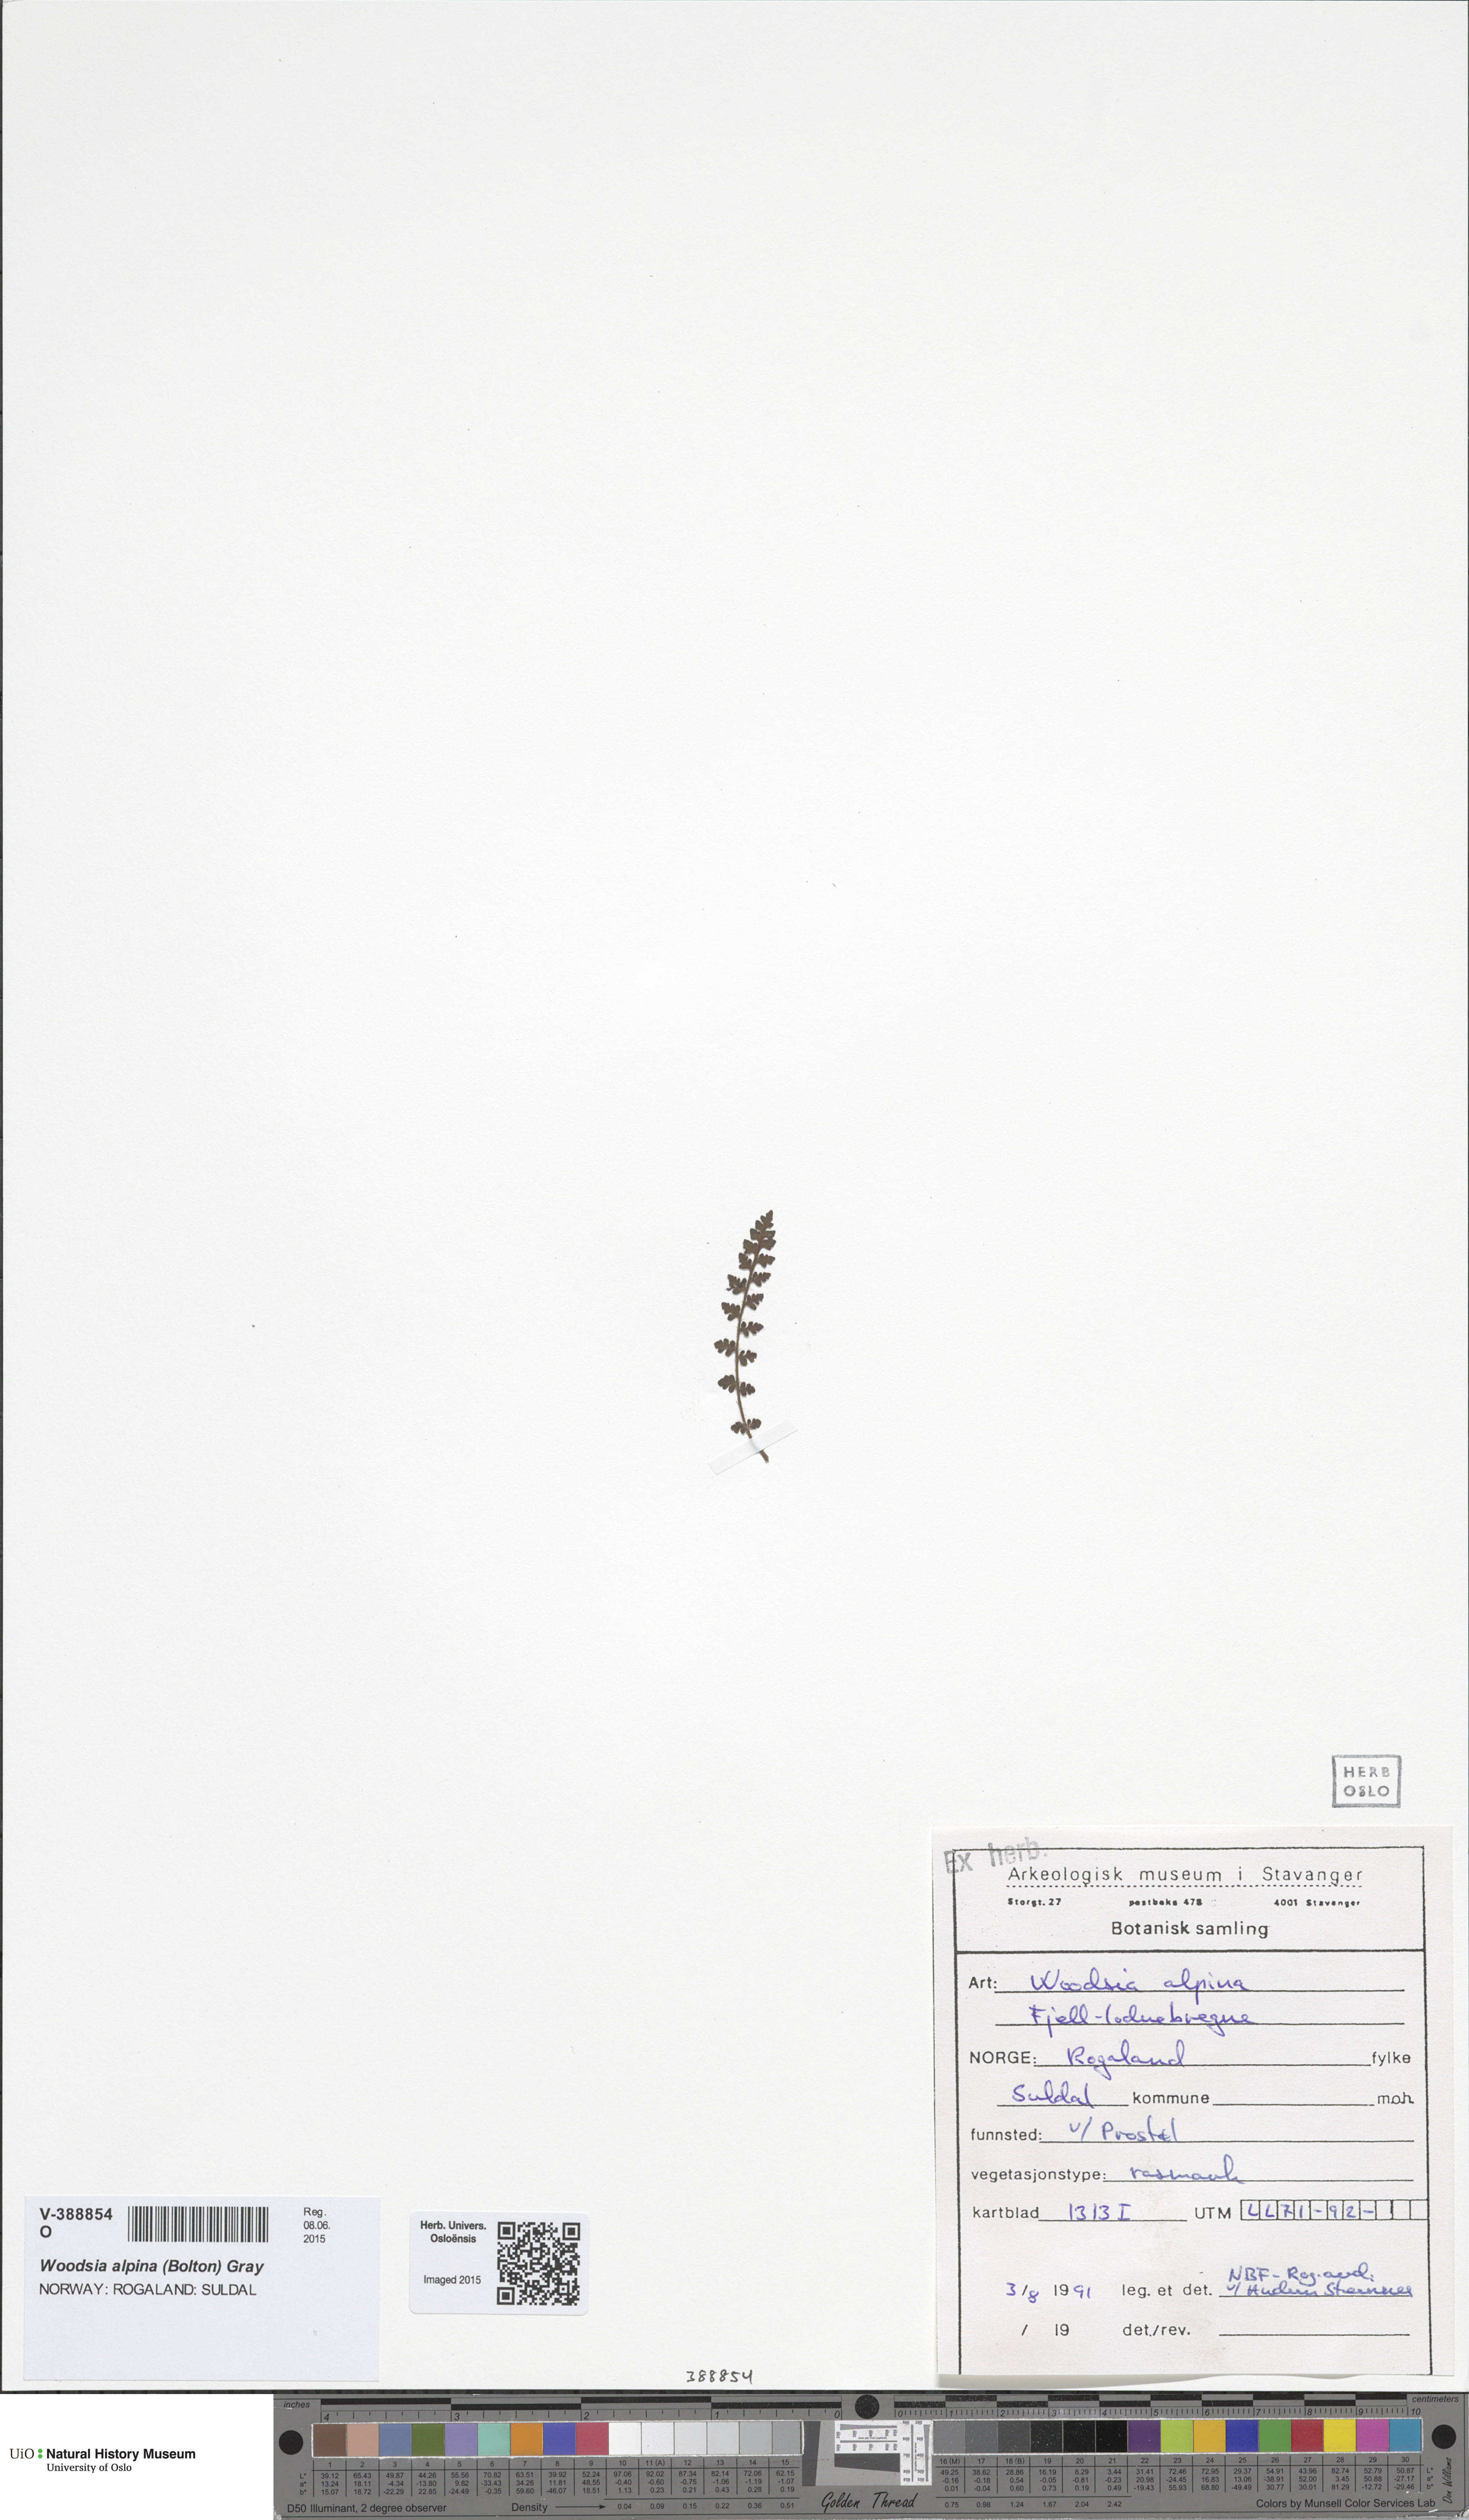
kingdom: Plantae
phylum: Tracheophyta
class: Polypodiopsida
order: Polypodiales
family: Woodsiaceae
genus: Woodsia
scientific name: Woodsia alpina
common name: Alpine woodsia
